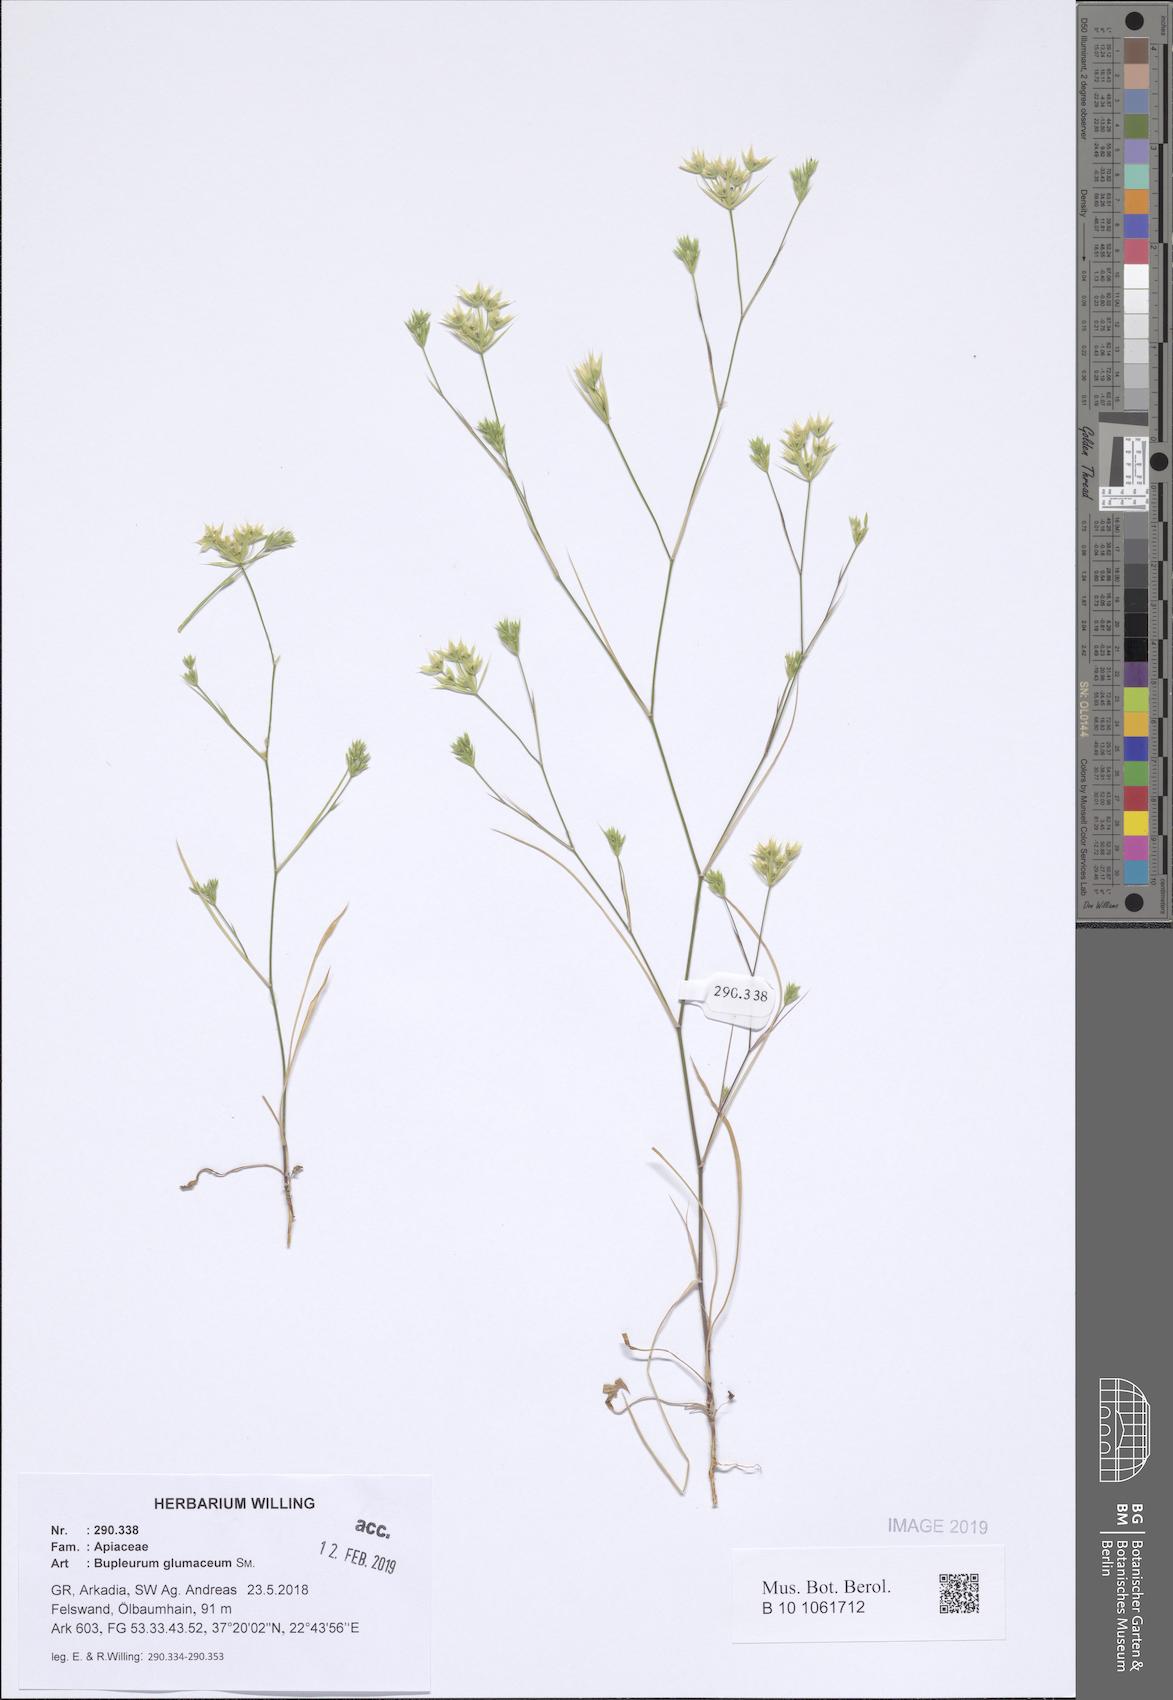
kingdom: Plantae
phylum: Tracheophyta
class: Magnoliopsida
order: Apiales
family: Apiaceae
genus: Bupleurum
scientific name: Bupleurum glumaceum
